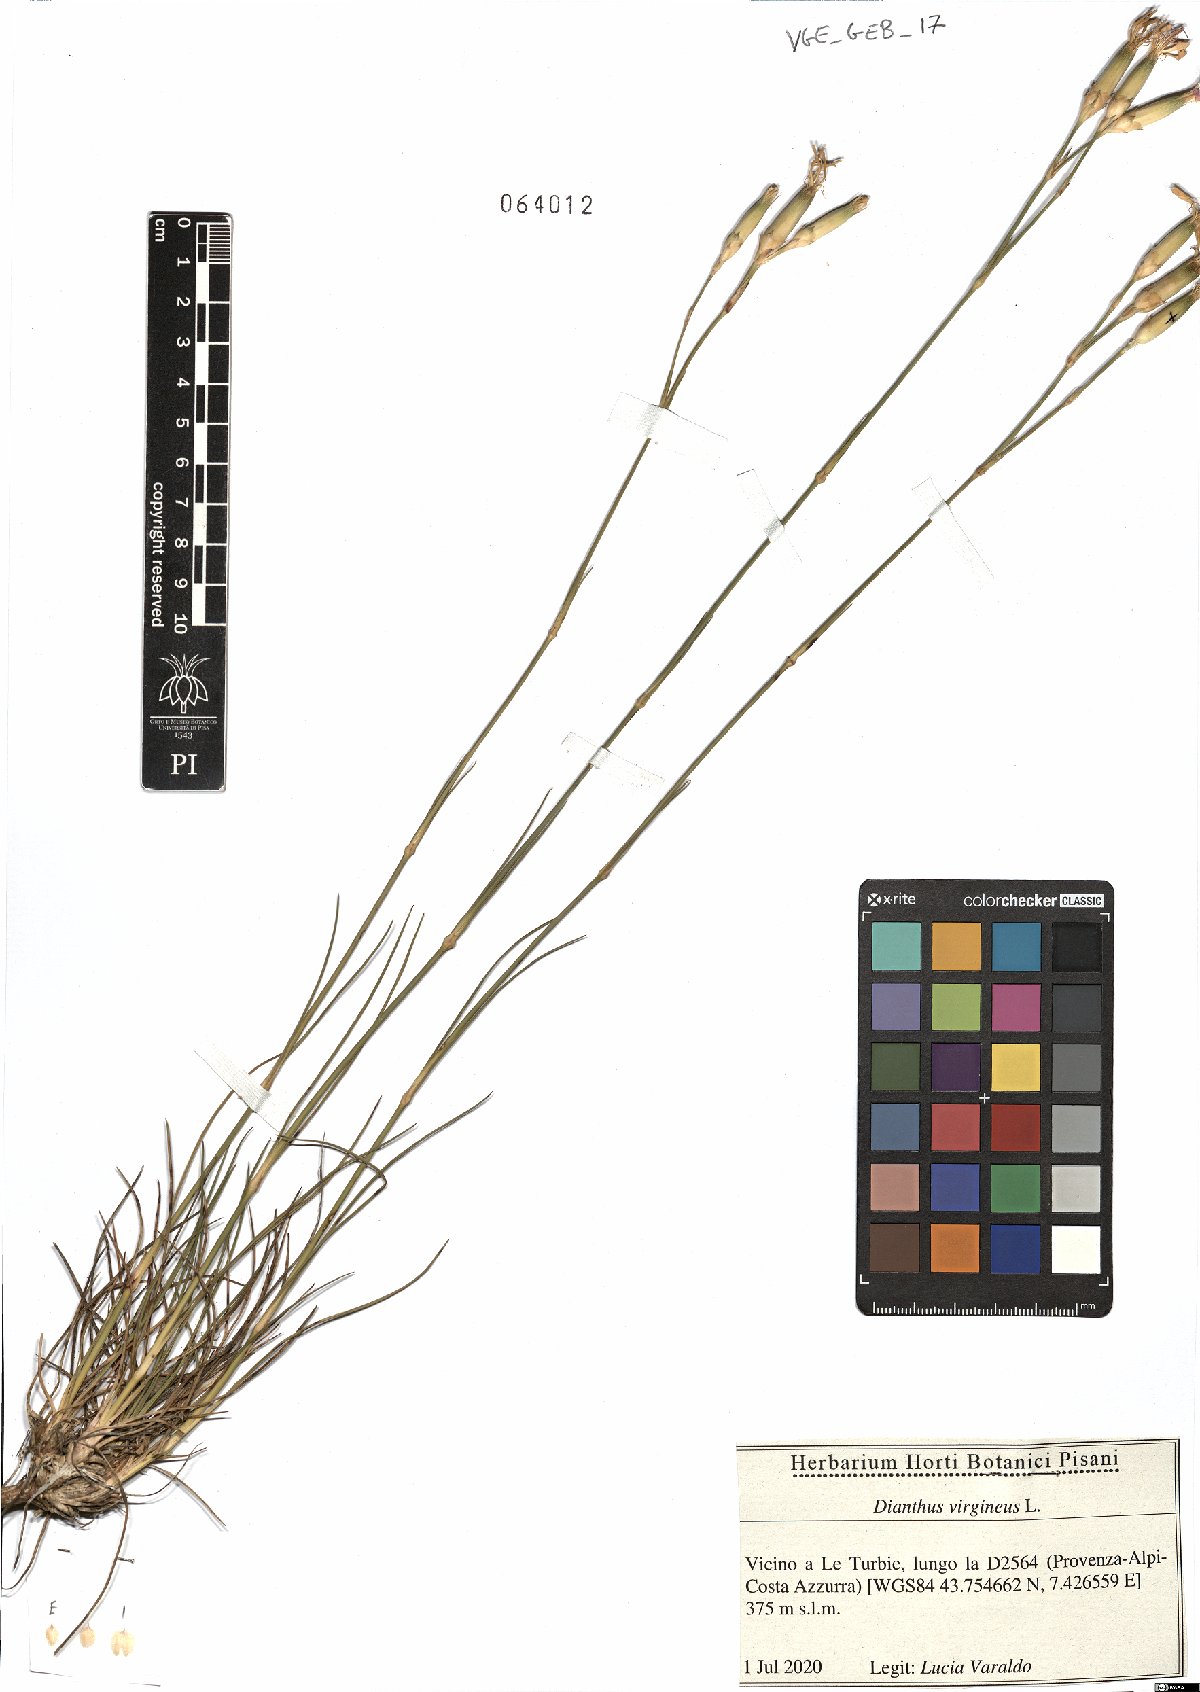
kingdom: Plantae
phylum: Tracheophyta
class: Magnoliopsida
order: Caryophyllales
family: Caryophyllaceae
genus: Dianthus
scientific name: Dianthus virgineus
